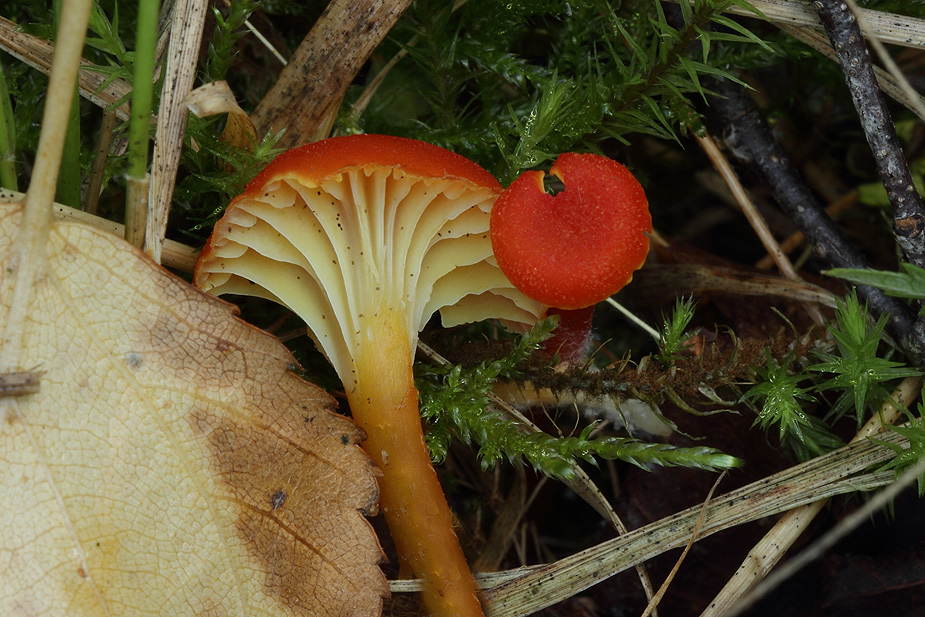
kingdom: Fungi
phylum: Basidiomycota
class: Agaricomycetes
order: Agaricales
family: Hygrophoraceae
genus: Hygrocybe
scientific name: Hygrocybe cantharellus
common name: kantarel-vokshat
